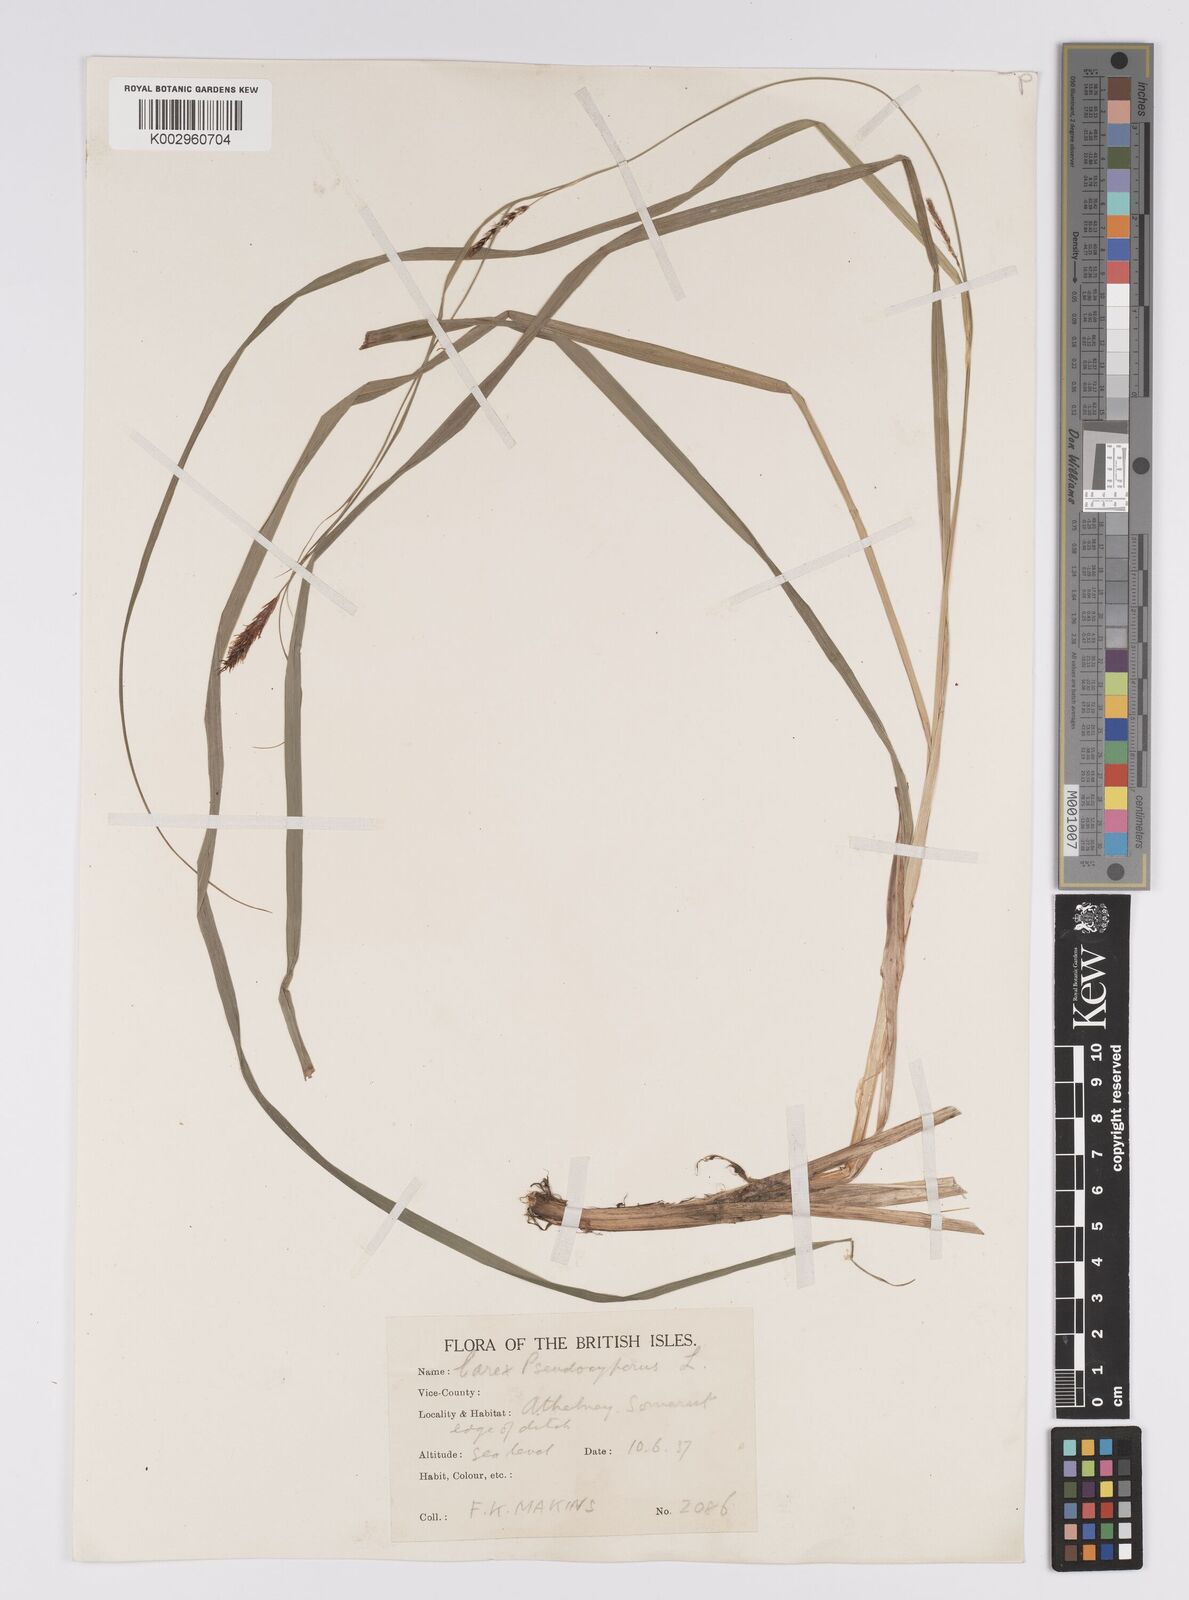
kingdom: Plantae
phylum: Tracheophyta
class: Liliopsida
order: Poales
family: Cyperaceae
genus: Carex
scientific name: Carex acutiformis
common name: Lesser pond-sedge
